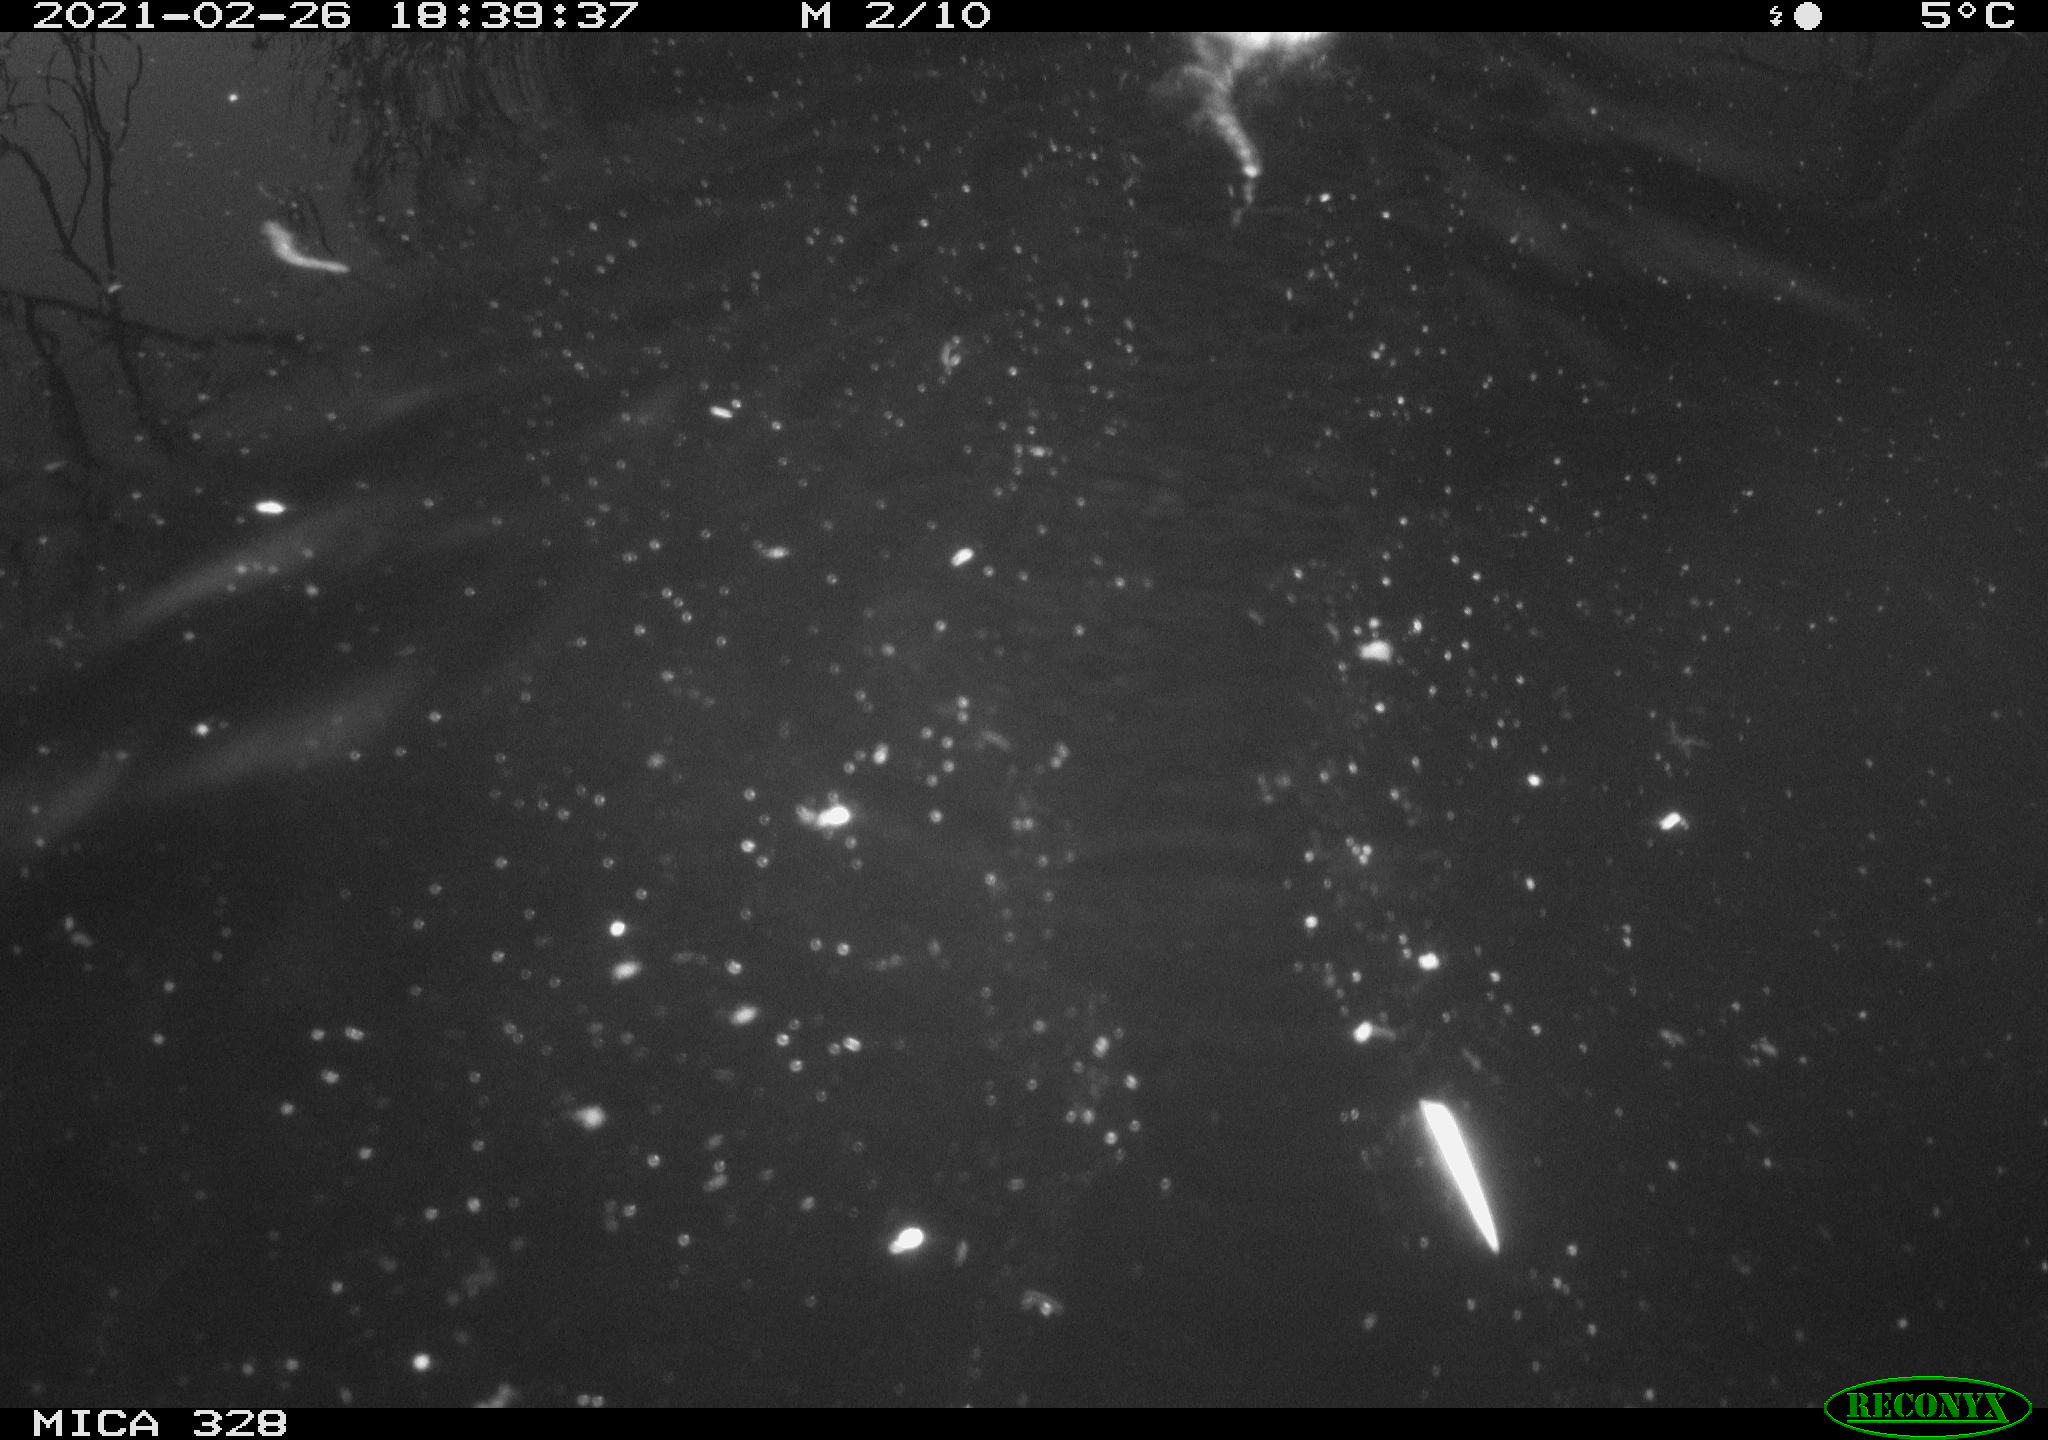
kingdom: Animalia
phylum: Chordata
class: Mammalia
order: Rodentia
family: Cricetidae
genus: Ondatra
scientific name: Ondatra zibethicus
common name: Muskrat
